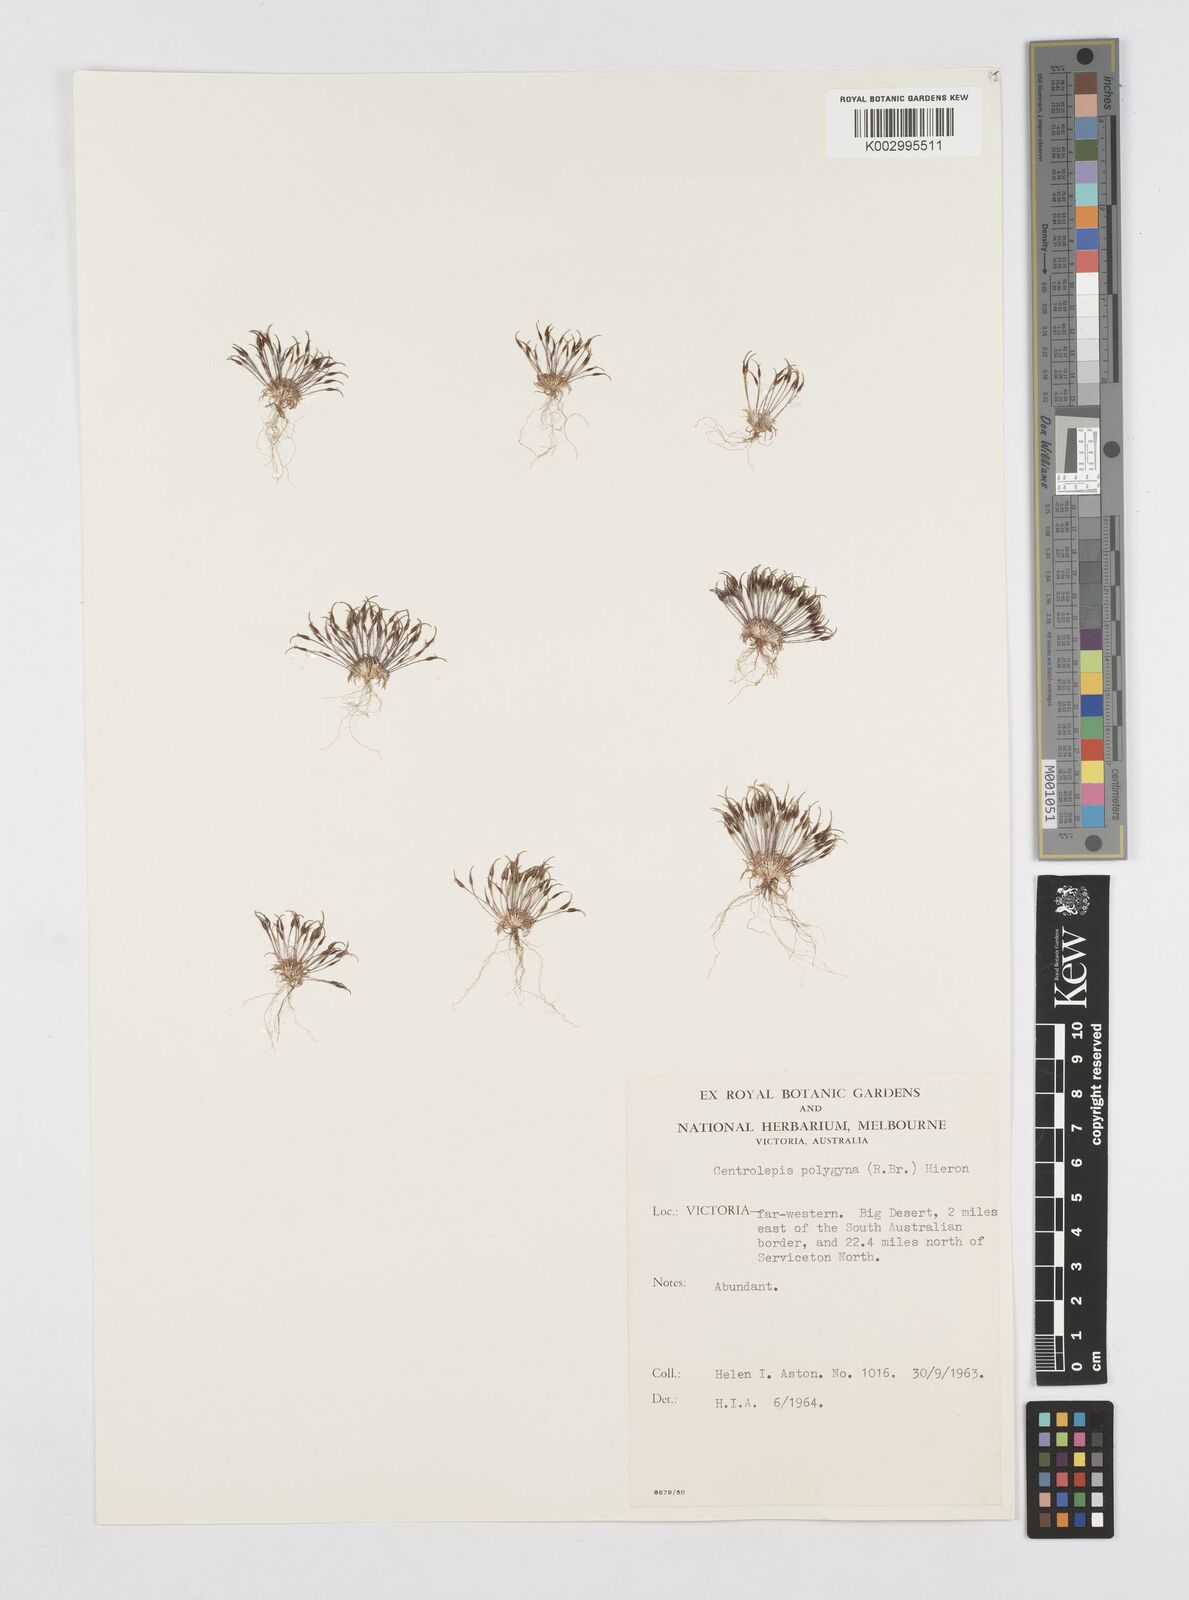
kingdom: Plantae
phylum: Tracheophyta
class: Liliopsida
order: Poales
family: Restionaceae
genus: Centrolepis
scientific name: Centrolepis polygyna
